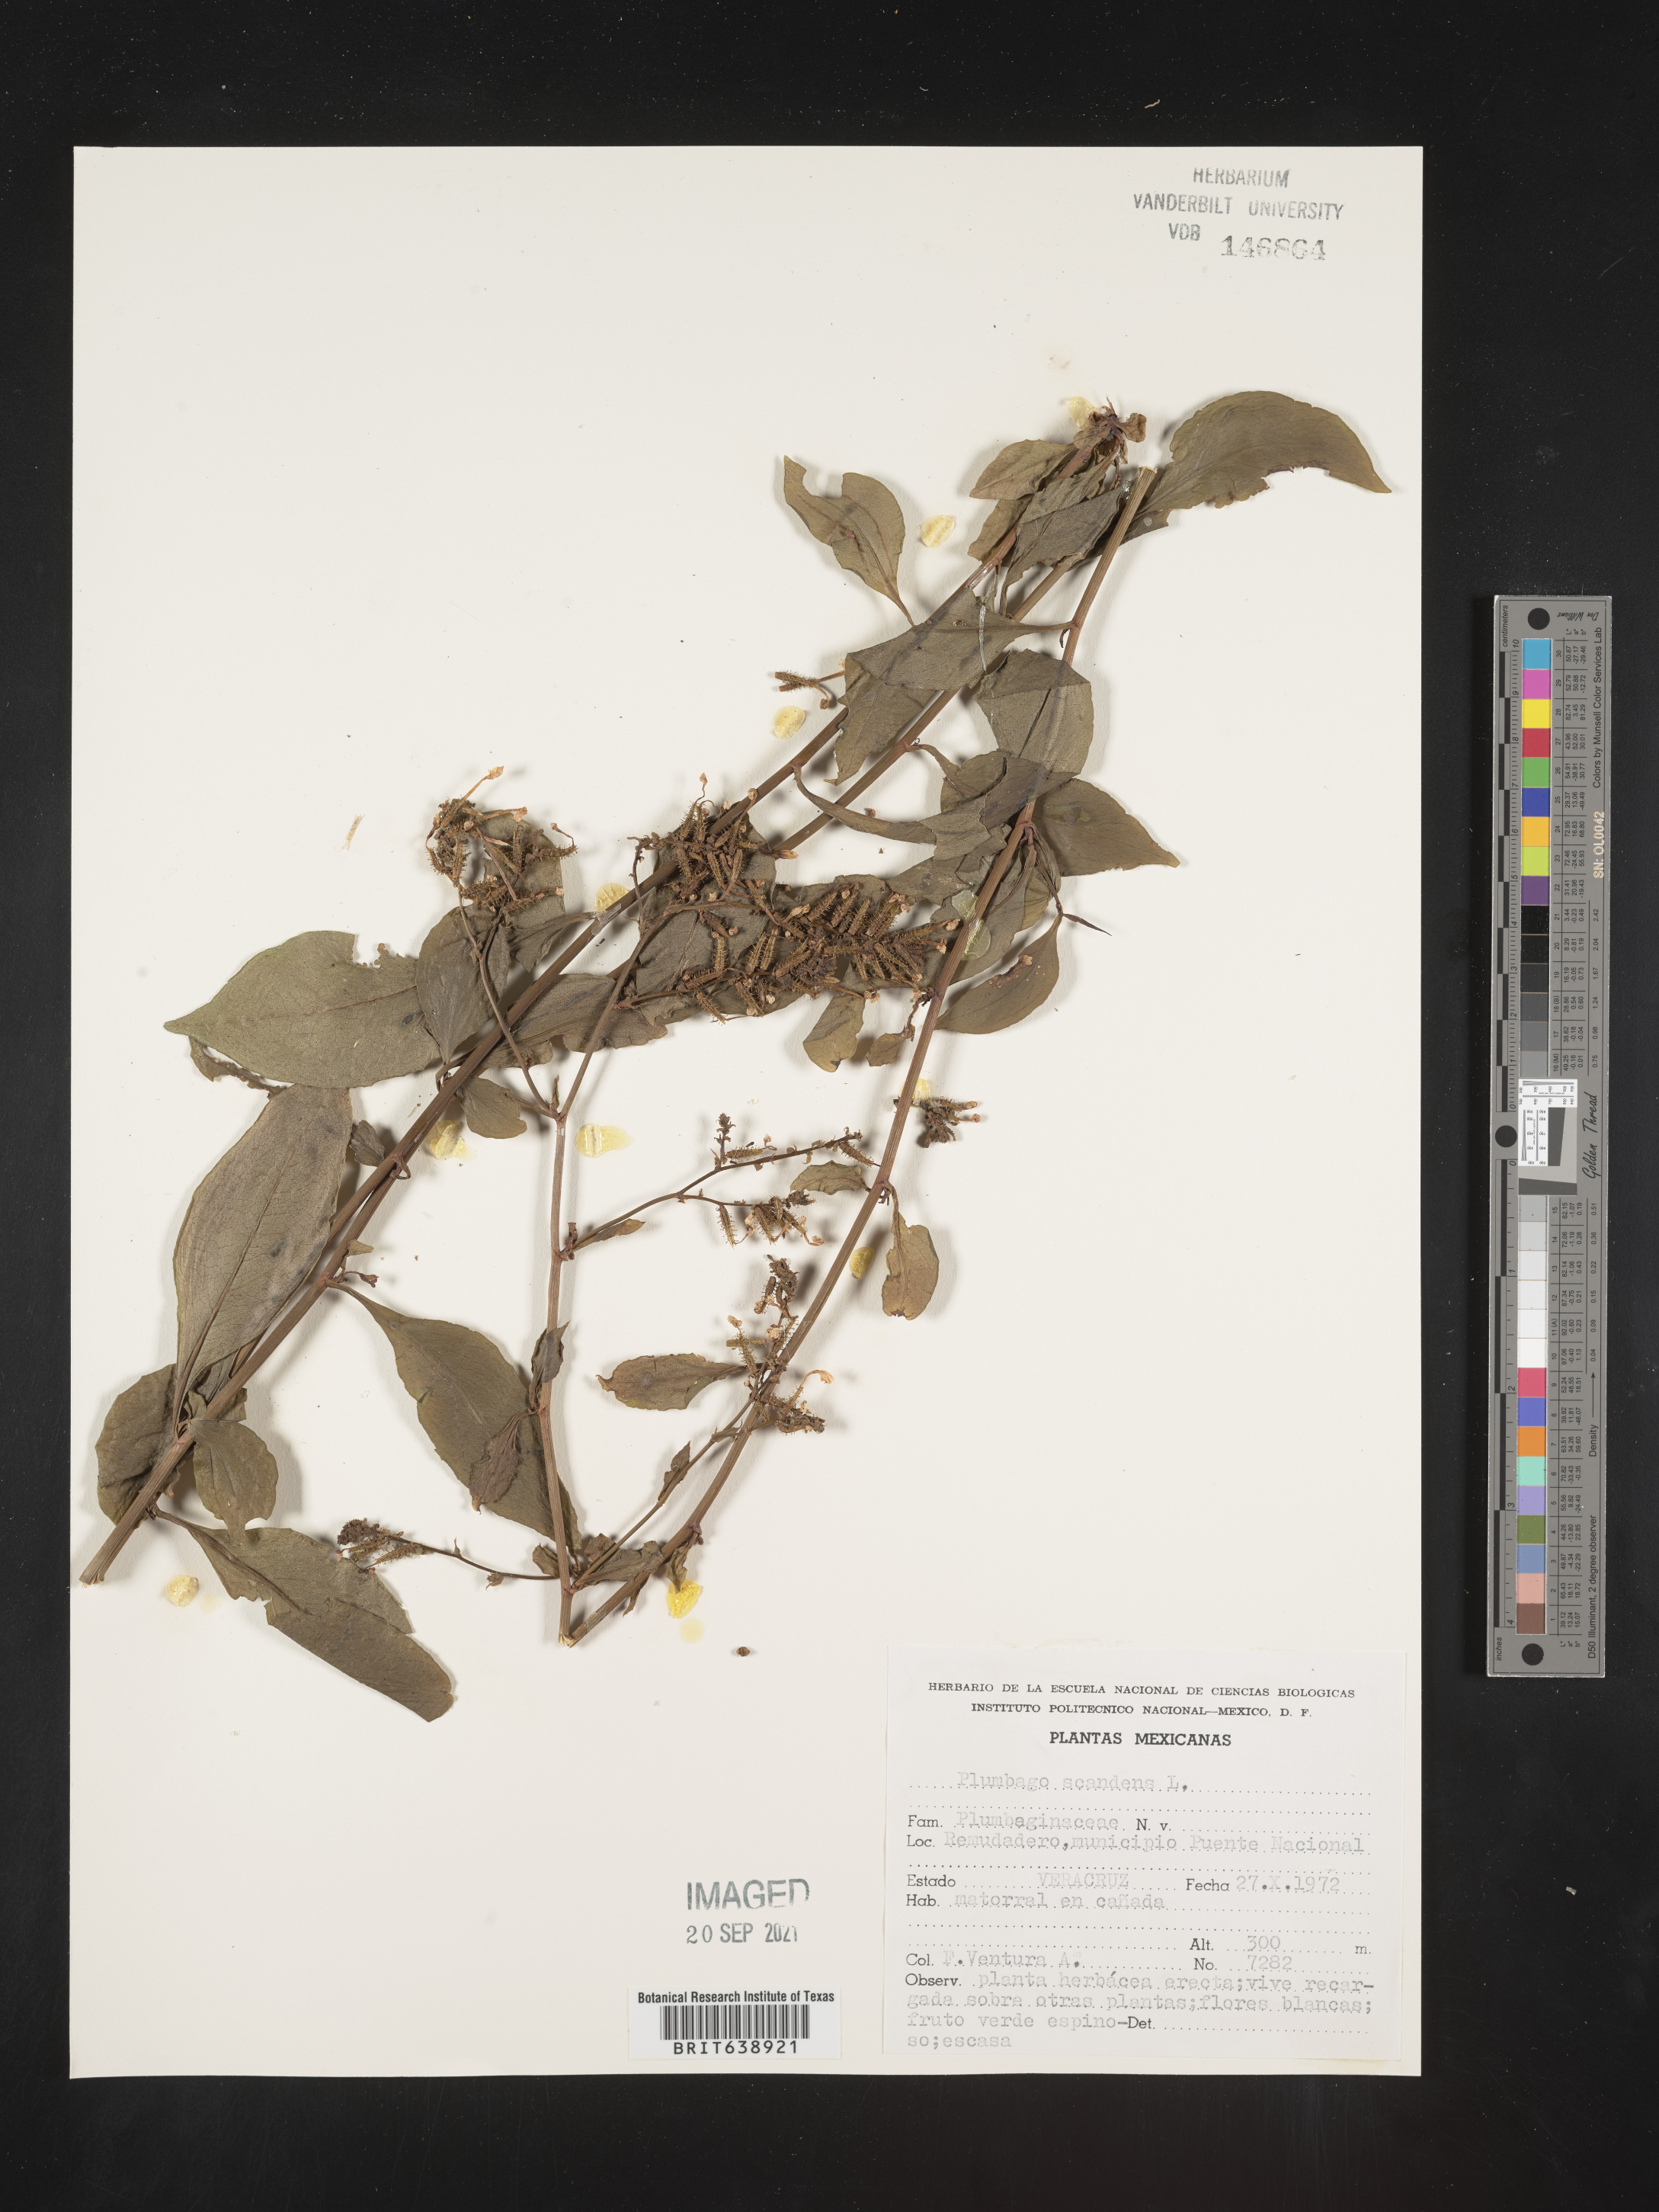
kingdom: Plantae
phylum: Tracheophyta
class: Magnoliopsida
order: Caryophyllales
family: Plumbaginaceae
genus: Plumbago
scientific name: Plumbago
